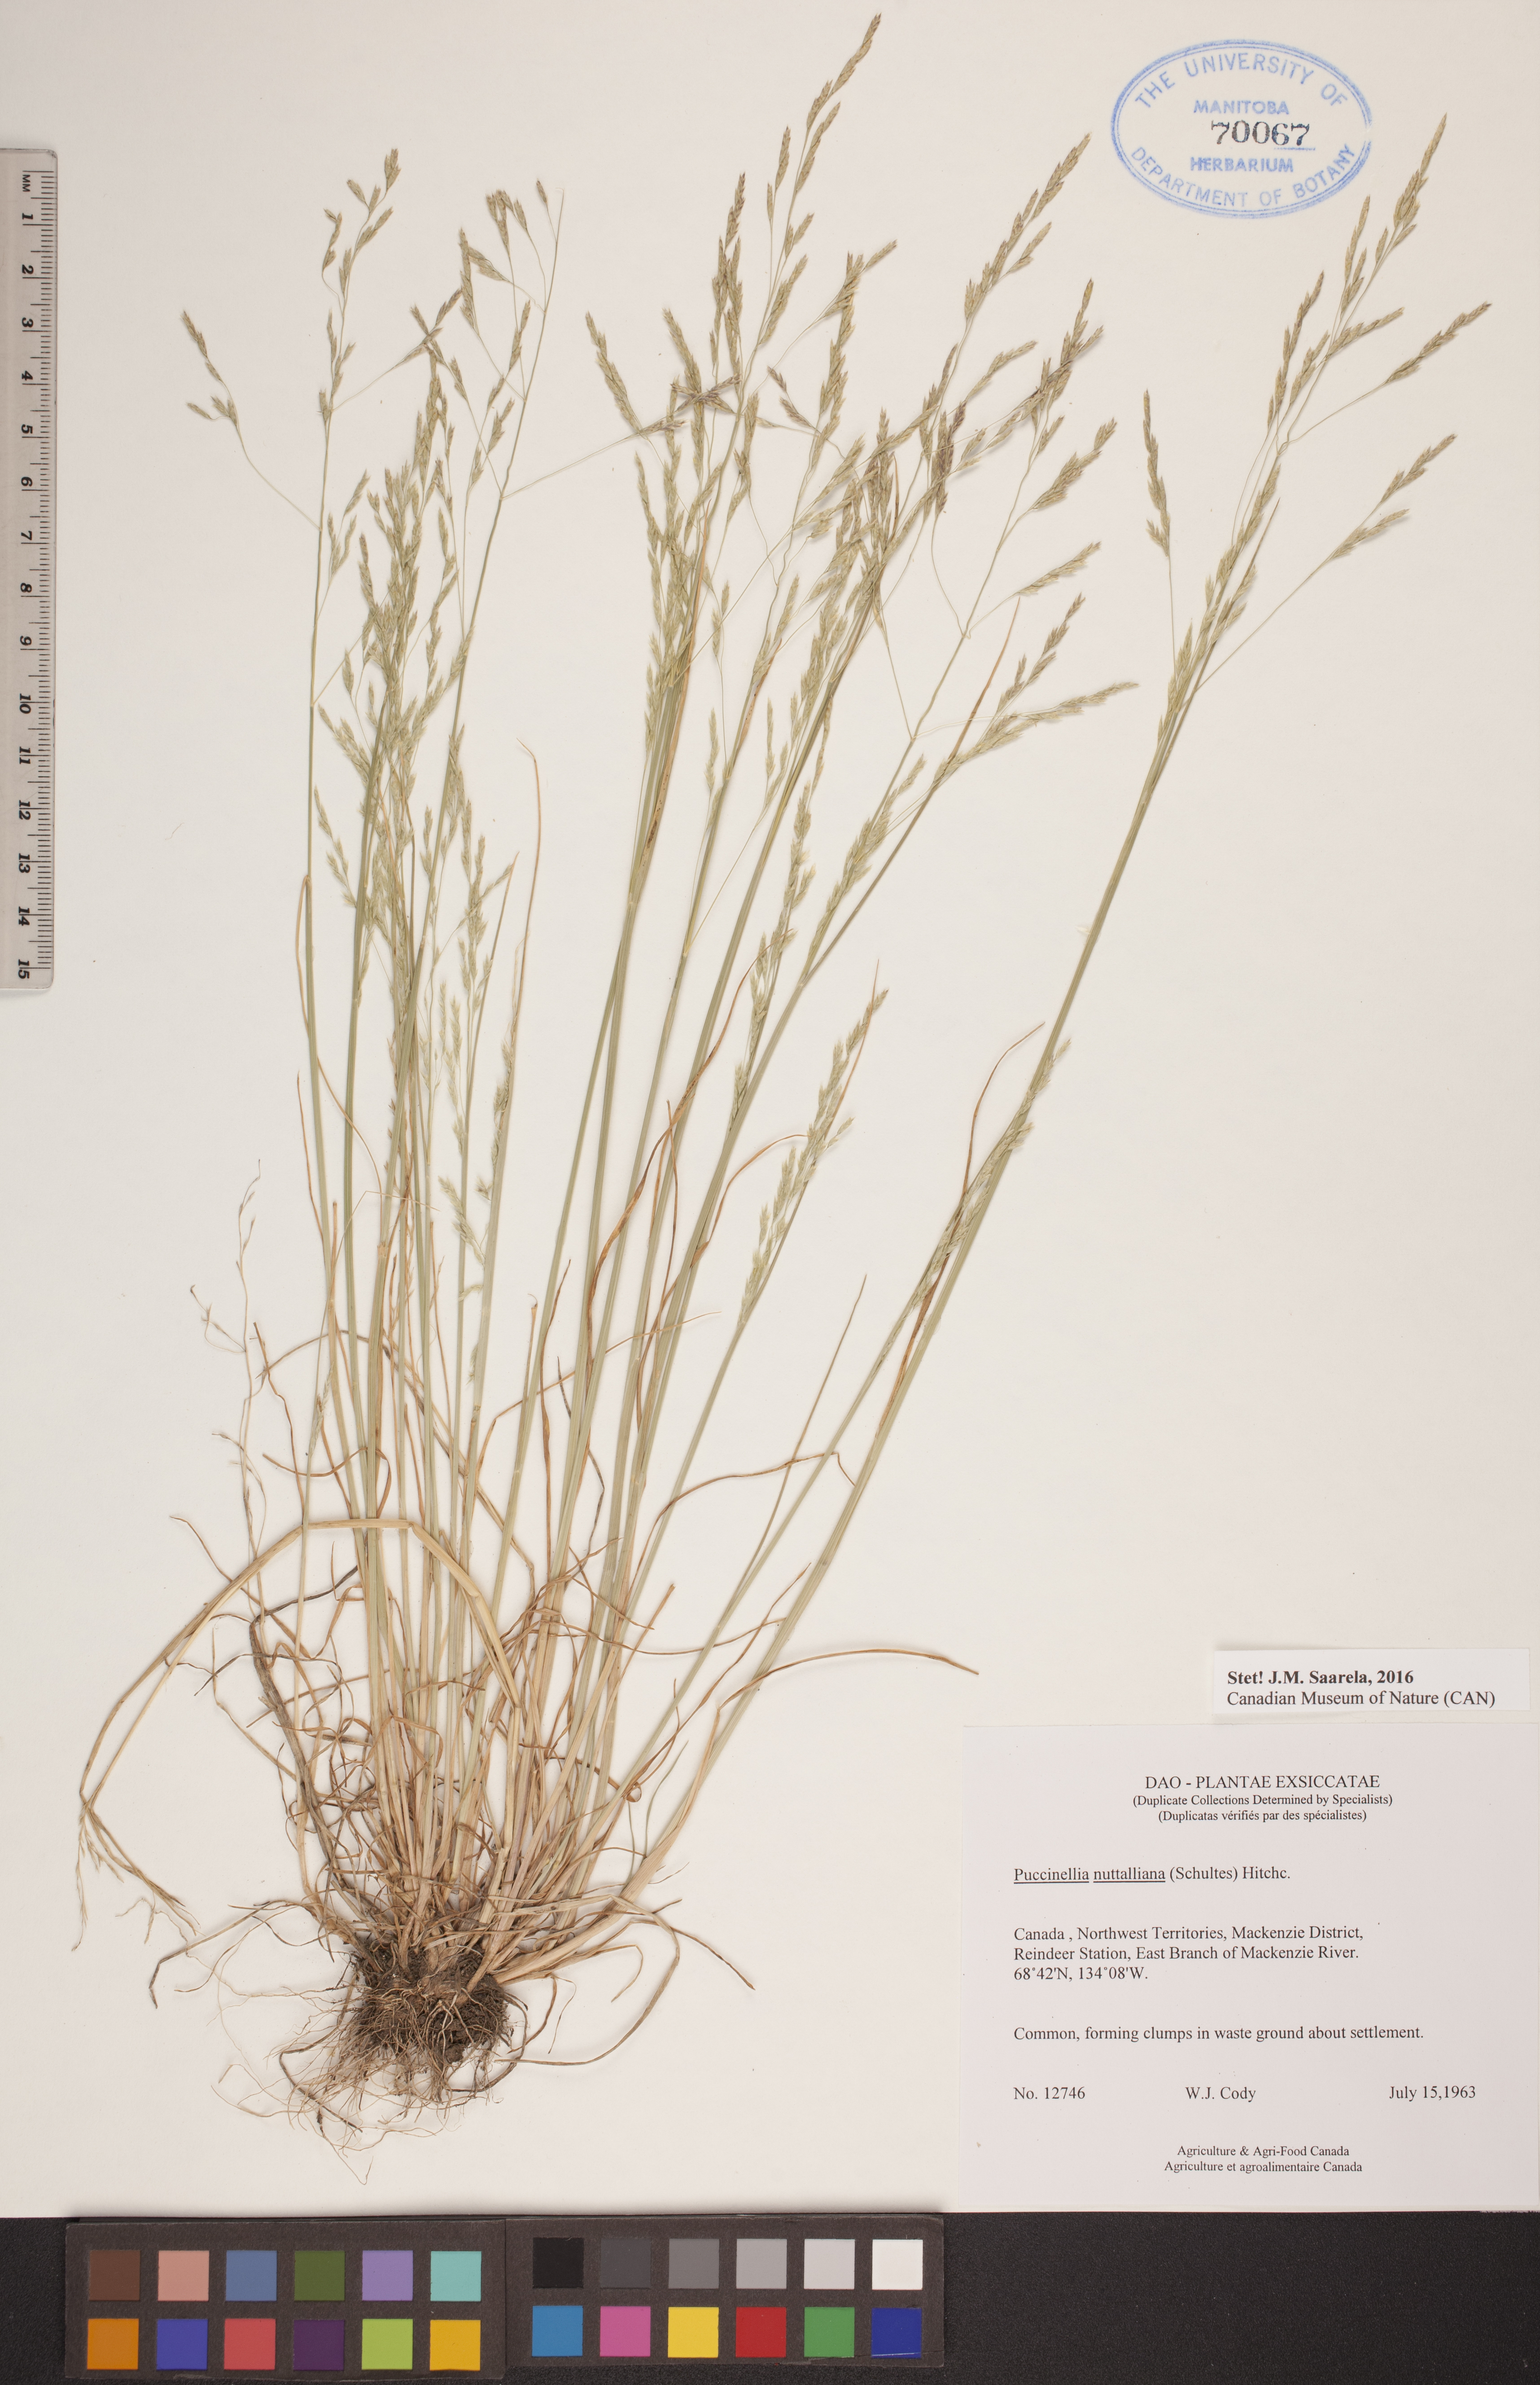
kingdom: Plantae
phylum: Tracheophyta
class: Liliopsida
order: Poales
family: Poaceae
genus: Puccinellia
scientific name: Puccinellia nuttalliana
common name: Nuttall's alkali grass
